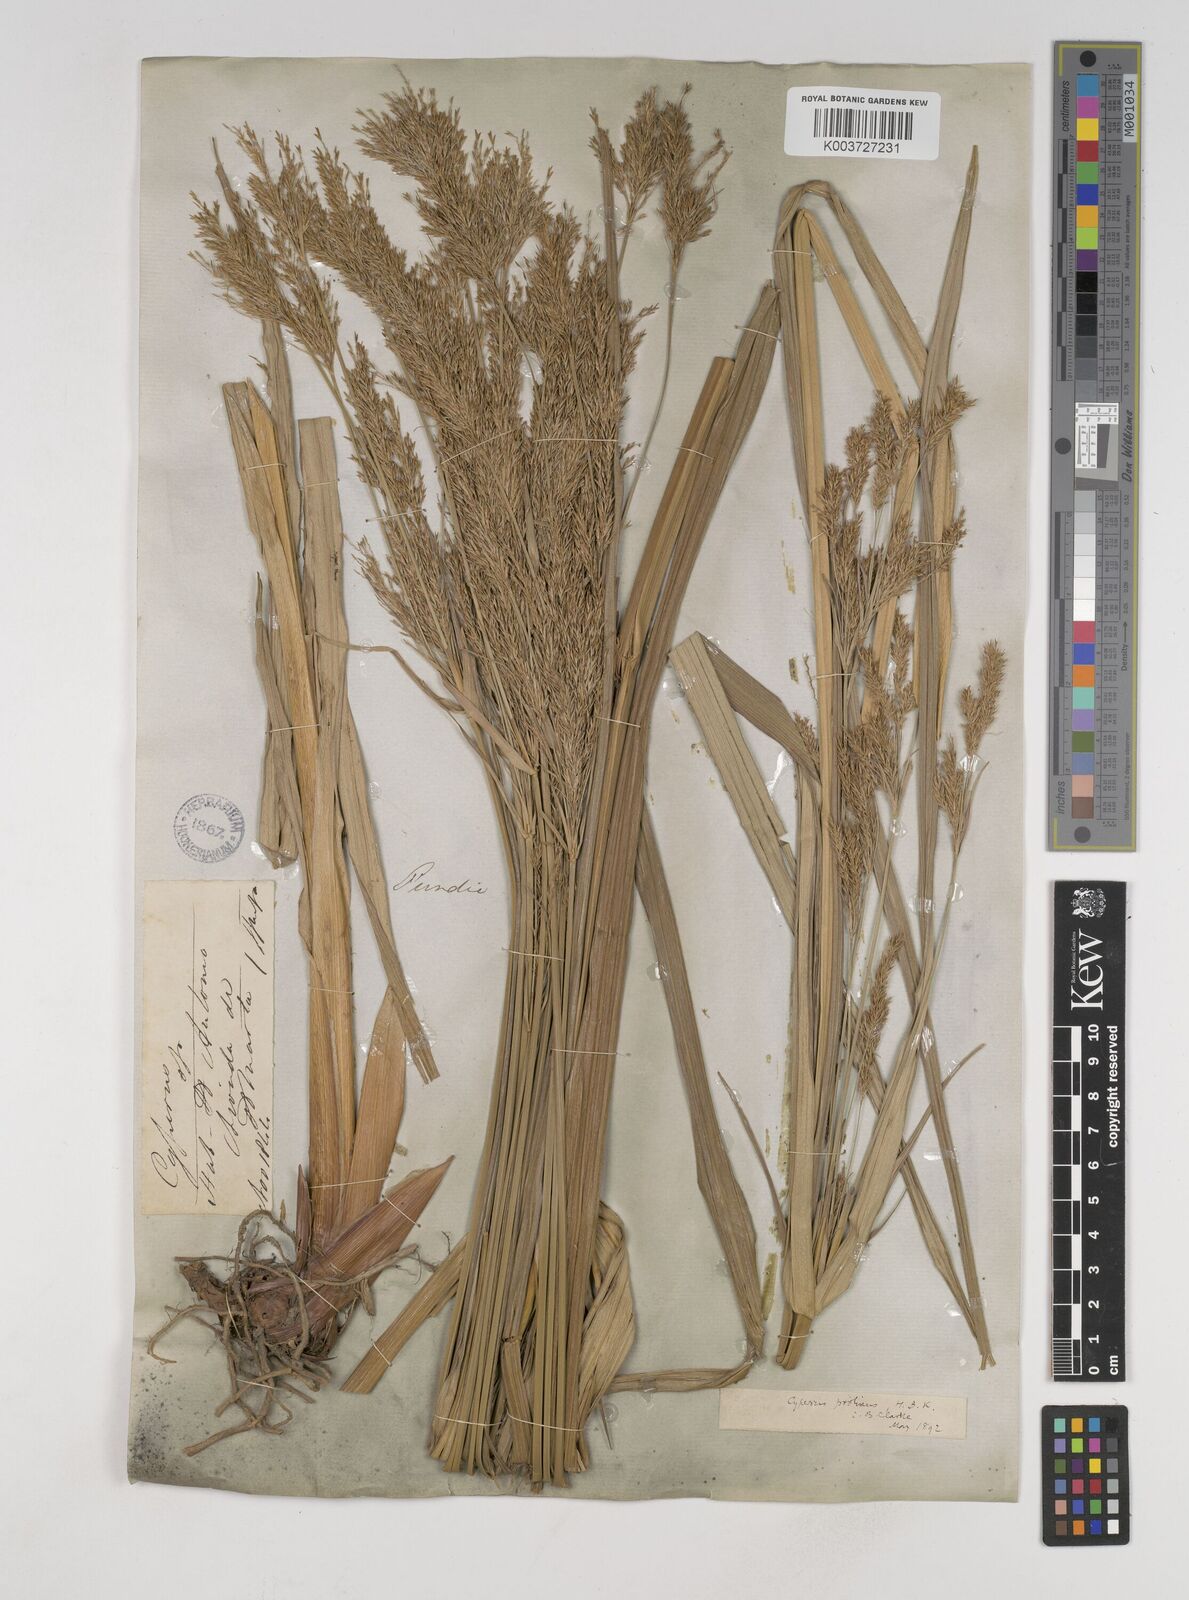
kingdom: Plantae
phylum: Tracheophyta
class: Liliopsida
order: Poales
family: Cyperaceae
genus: Cyperus
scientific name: Cyperus prolixus
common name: Mosquito flatsedge
